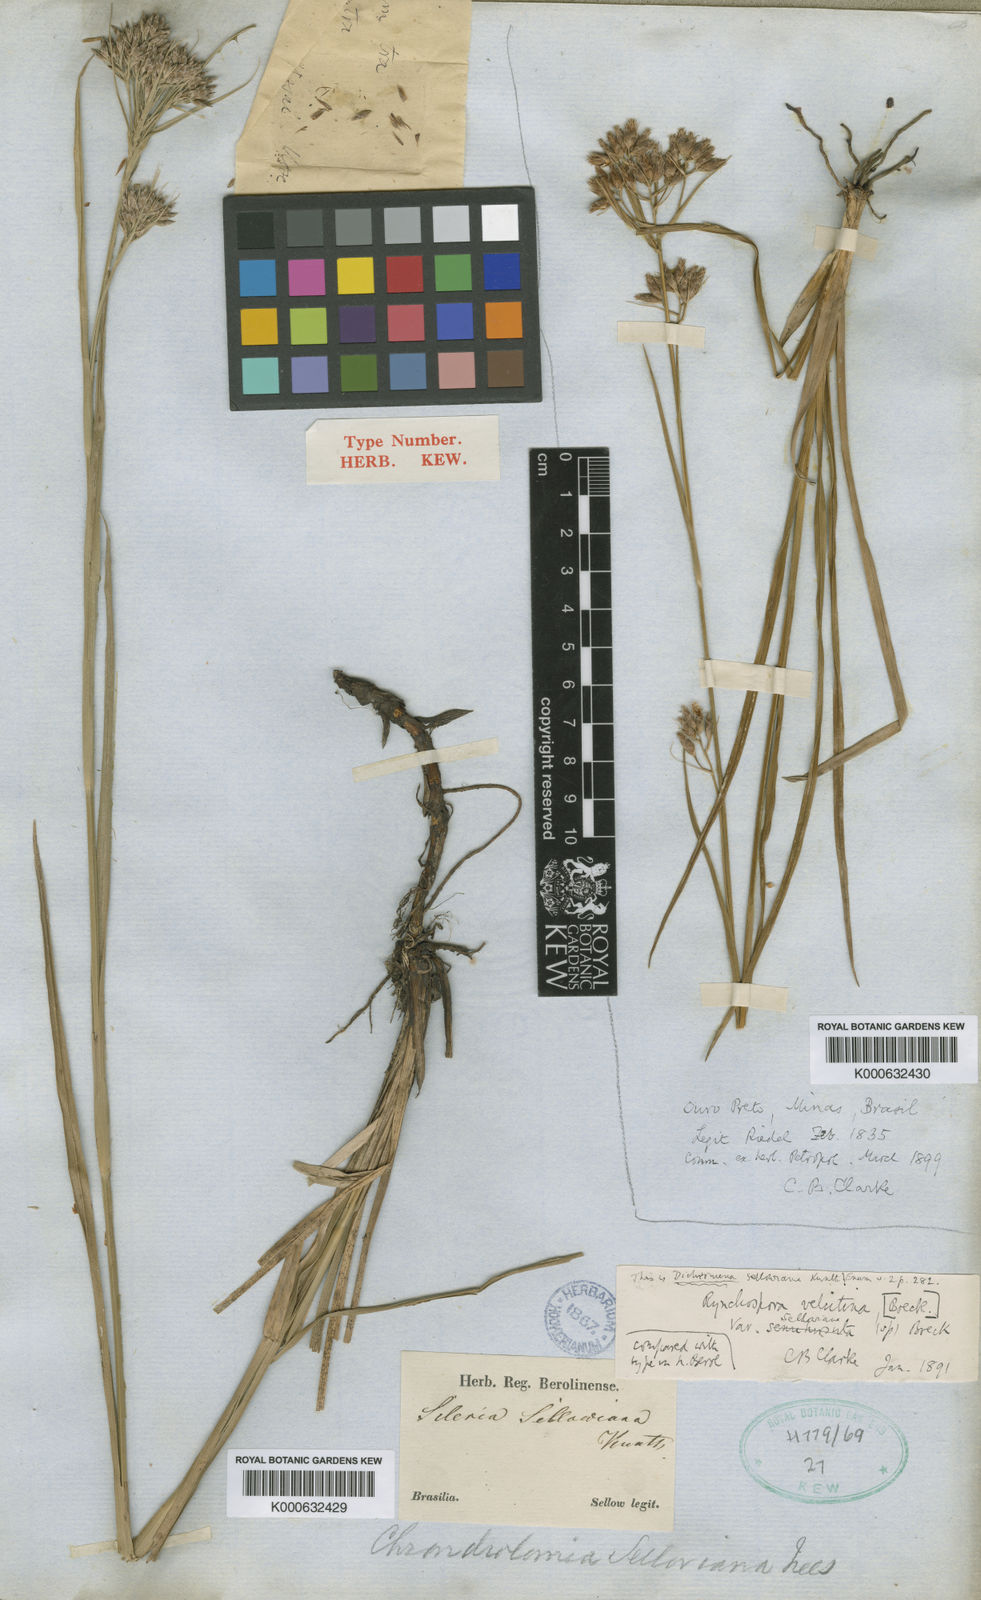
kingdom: Plantae
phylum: Tracheophyta
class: Liliopsida
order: Poales
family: Cyperaceae
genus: Rhynchospora
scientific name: Rhynchospora velutina
